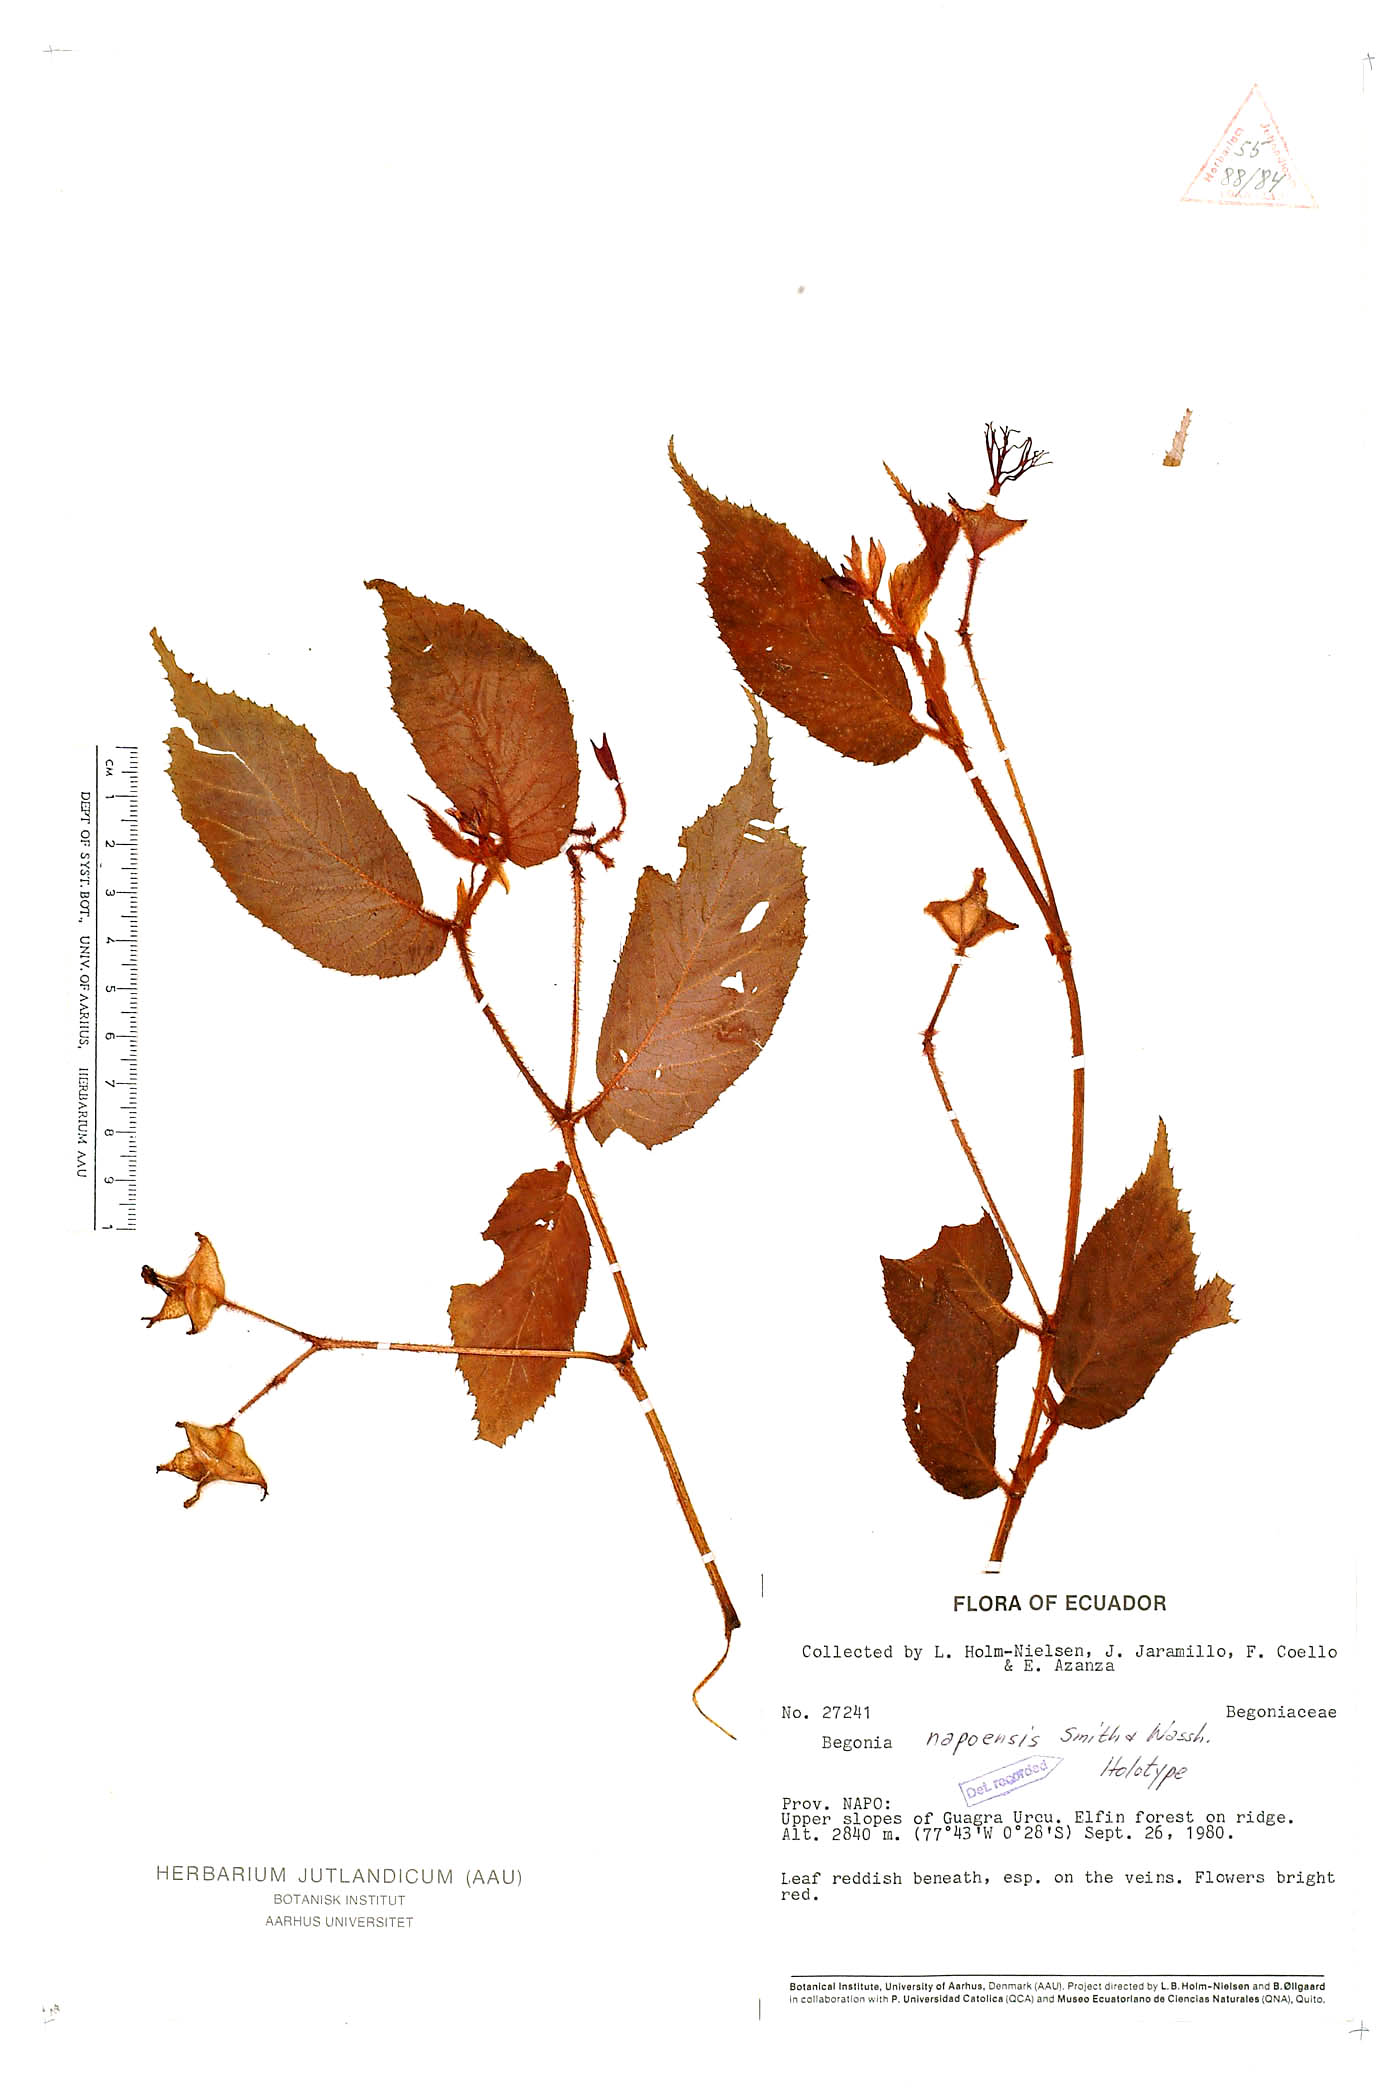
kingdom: Plantae
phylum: Tracheophyta
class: Magnoliopsida
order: Cucurbitales
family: Begoniaceae
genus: Begonia
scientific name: Begonia napoensis
